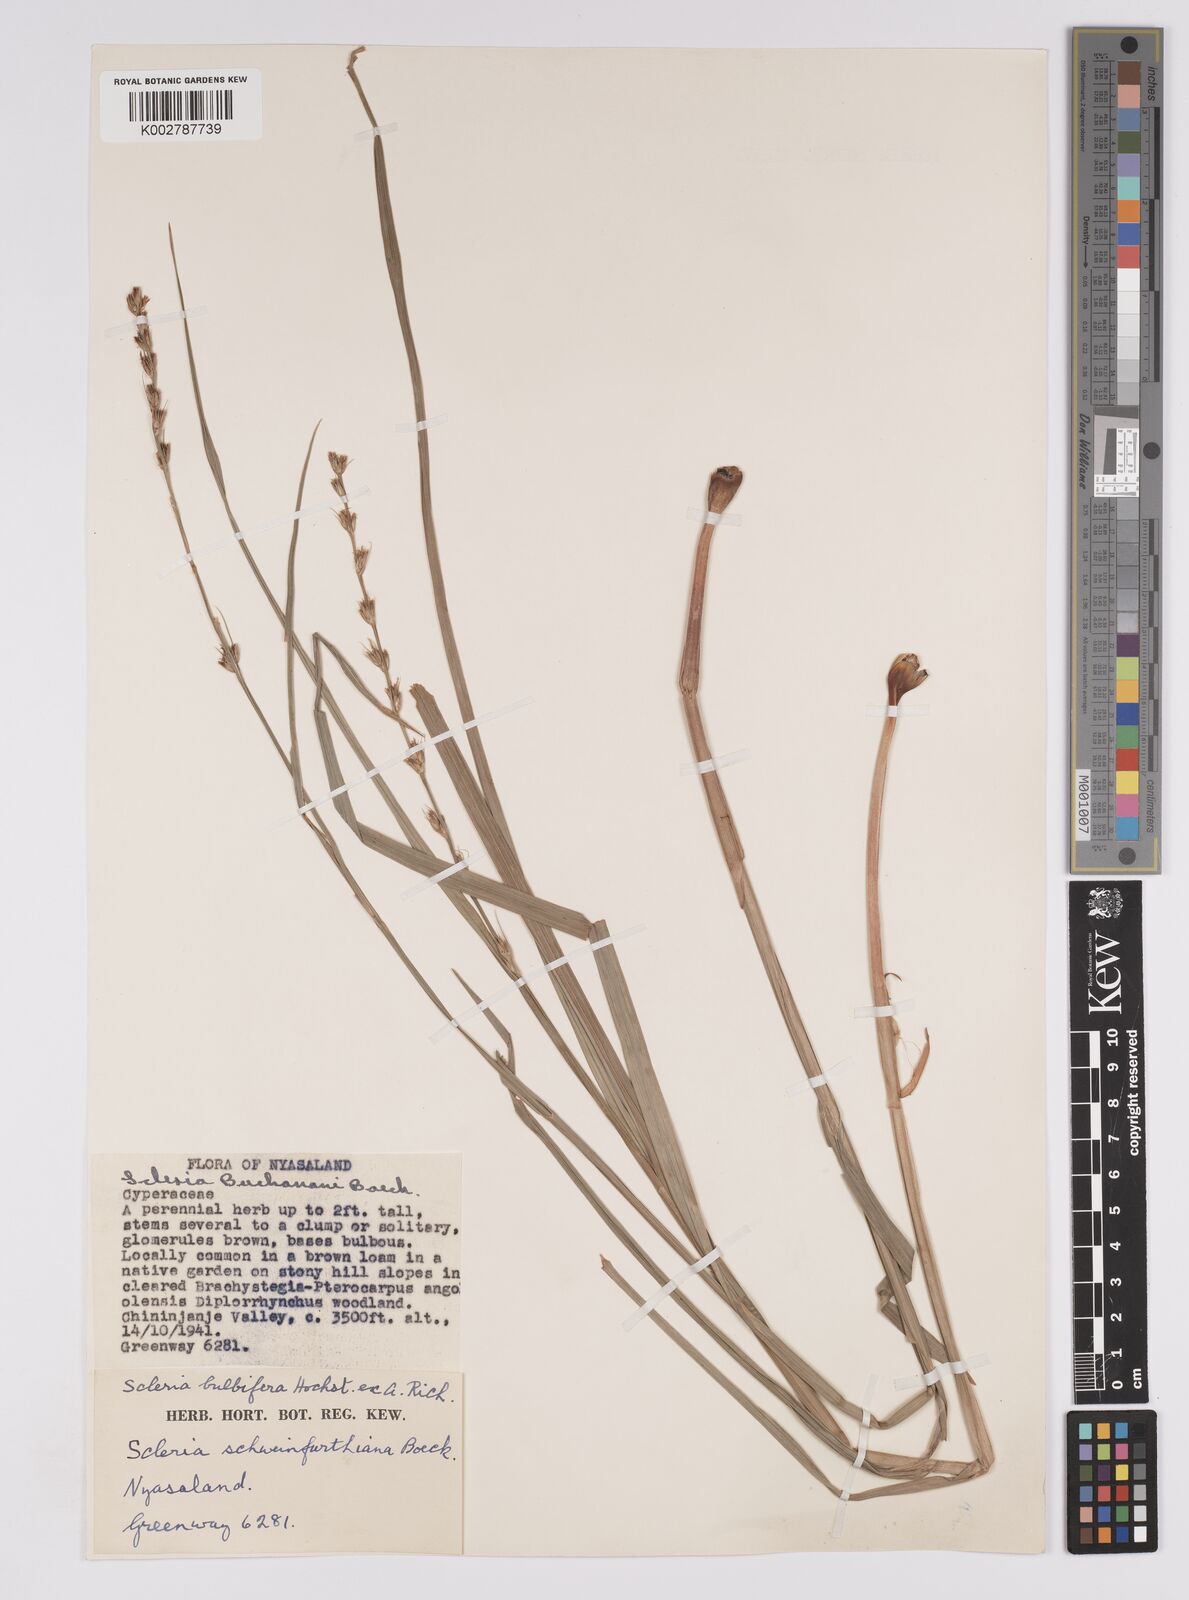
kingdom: Plantae
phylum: Tracheophyta
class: Liliopsida
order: Poales
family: Cyperaceae
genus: Scleria
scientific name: Scleria bulbifera
